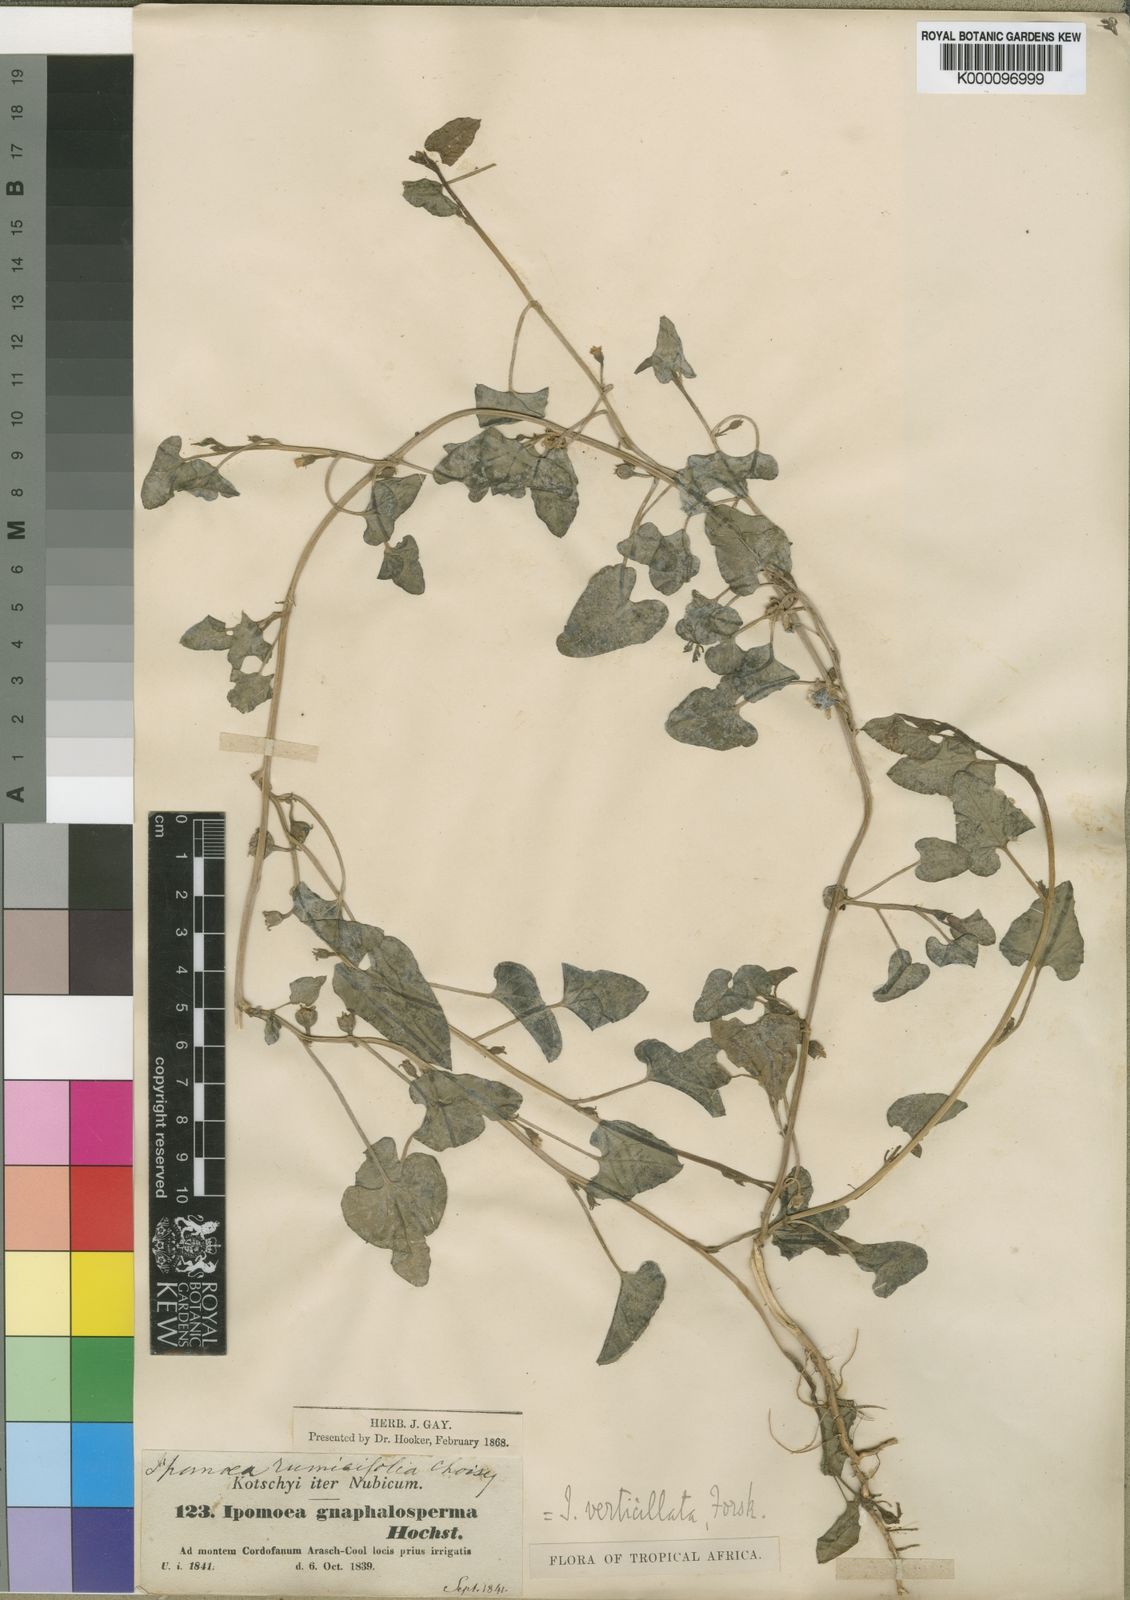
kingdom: Plantae
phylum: Tracheophyta
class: Magnoliopsida
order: Solanales
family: Convolvulaceae
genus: Ipomoea
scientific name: Ipomoea verticillata
